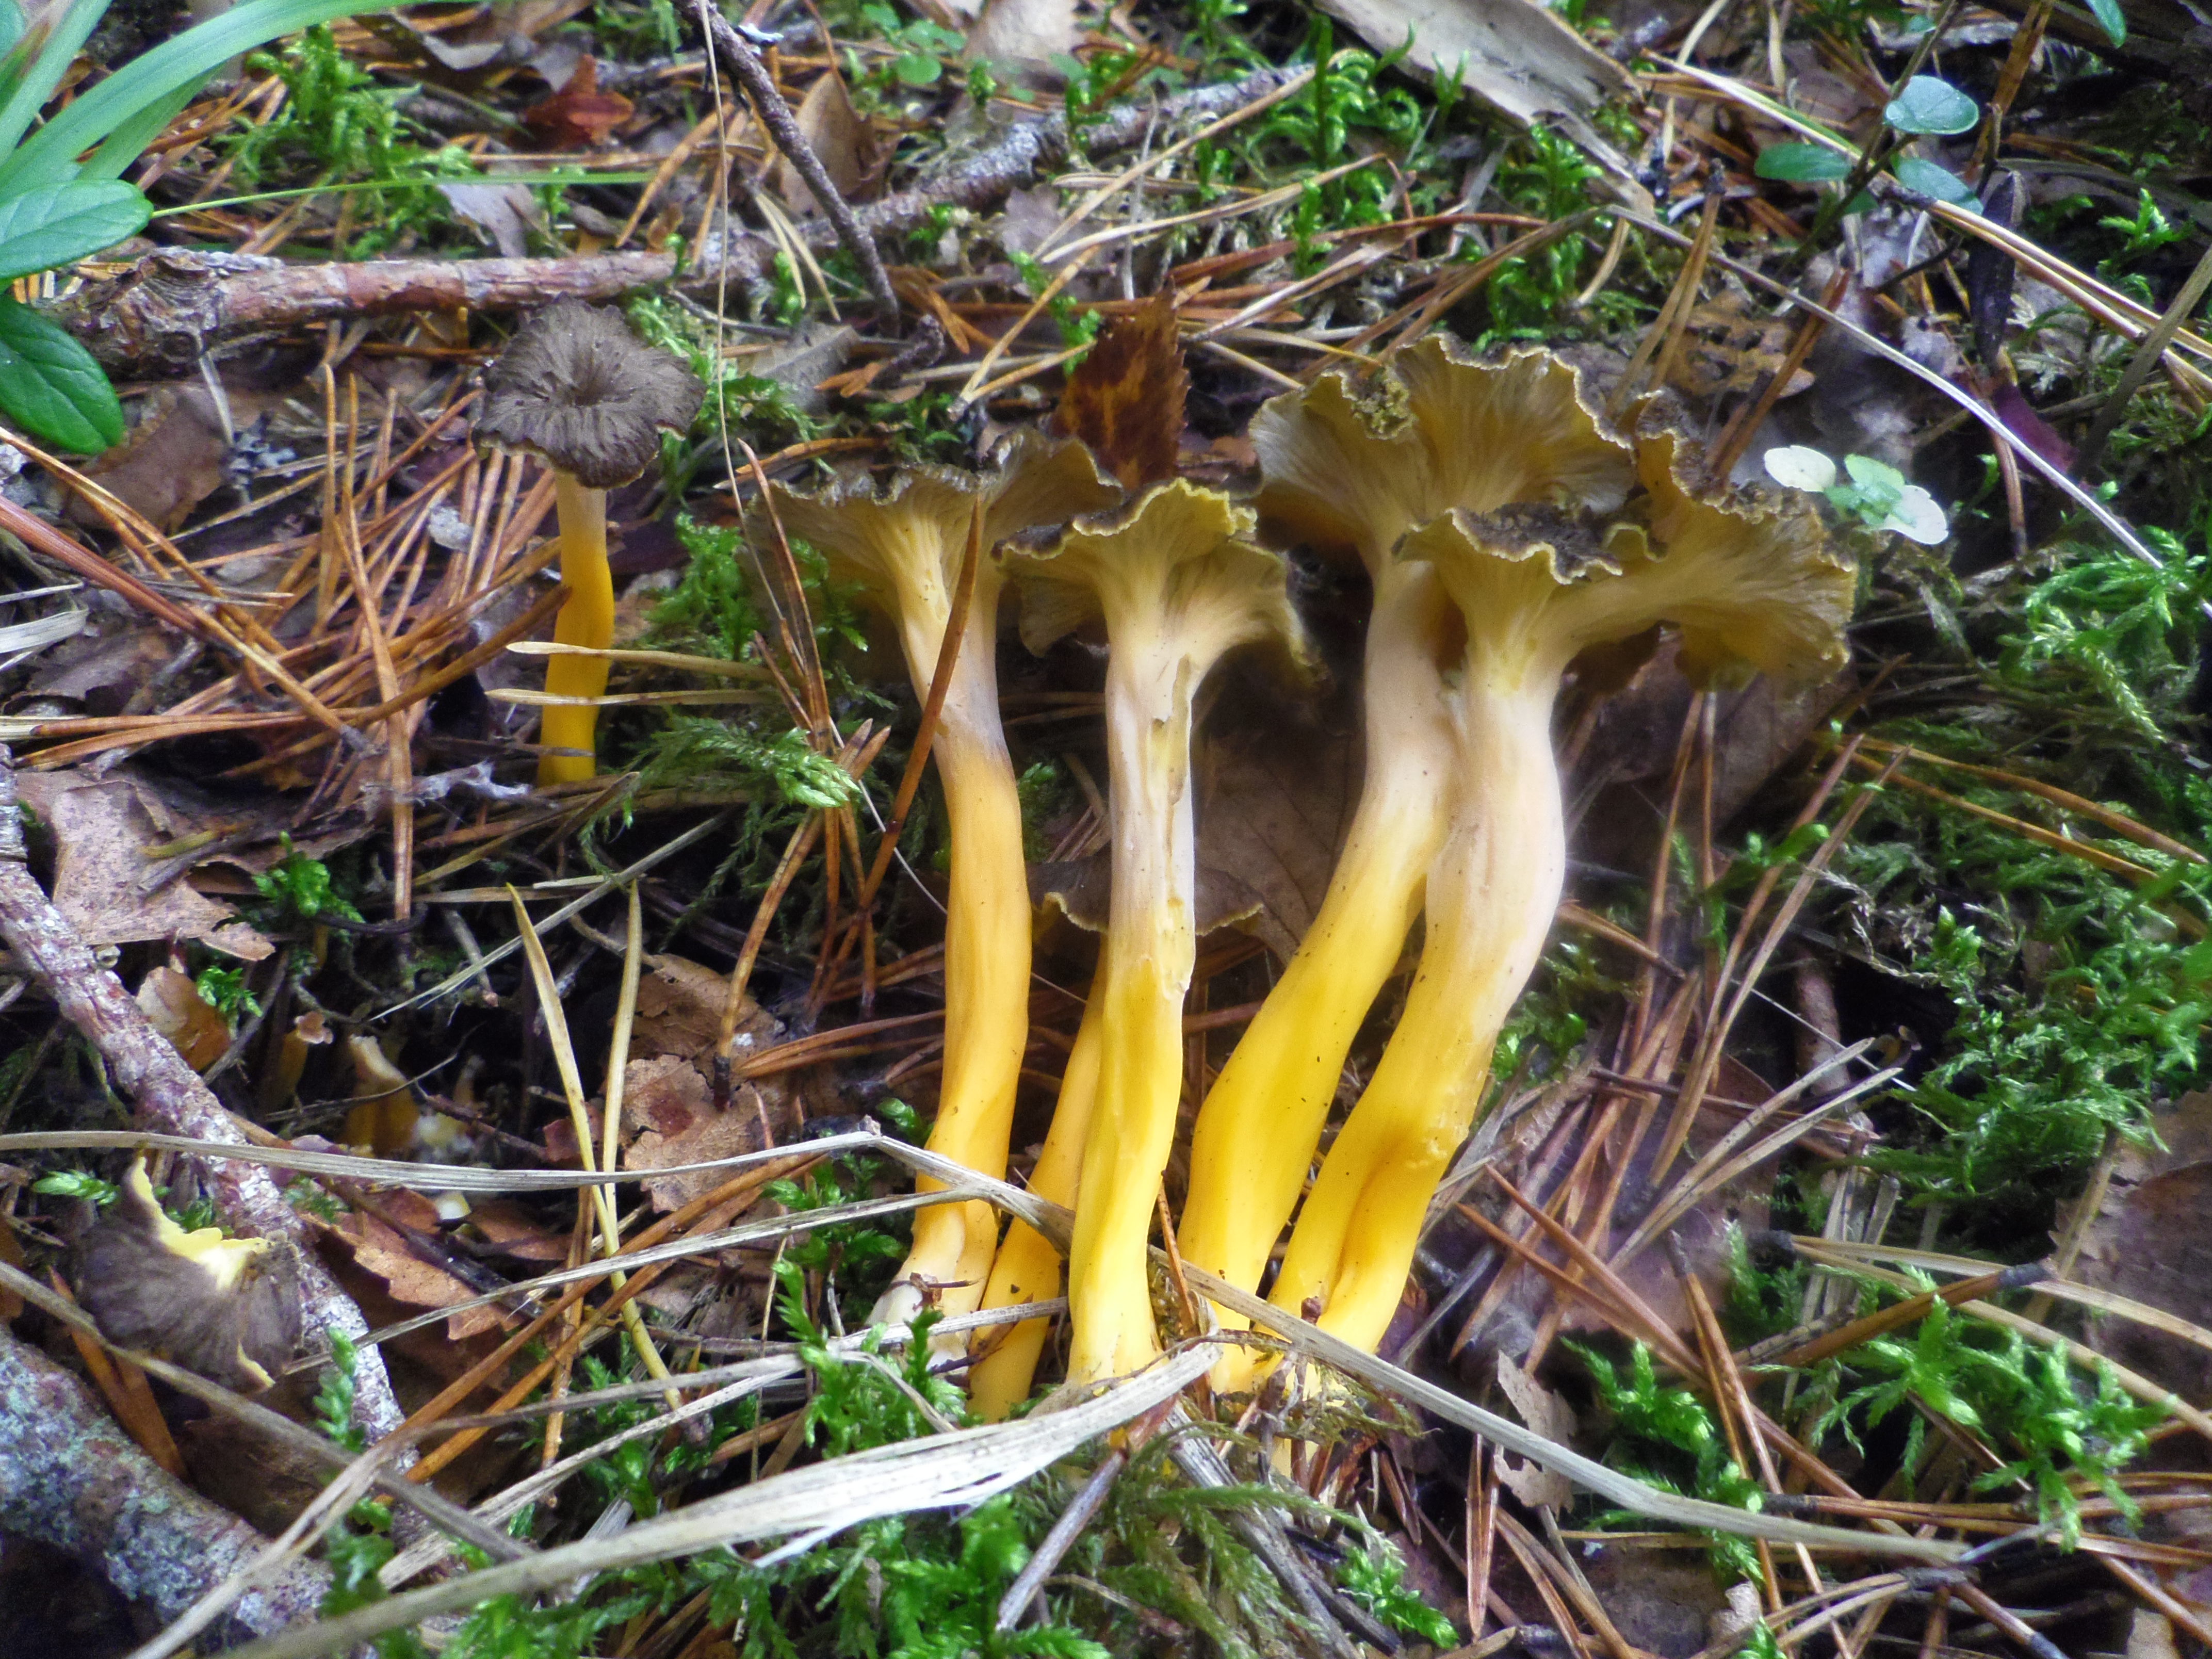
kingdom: Fungi
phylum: Basidiomycota
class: Agaricomycetes
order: Cantharellales
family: Hydnaceae
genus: Craterellus
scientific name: Craterellus lutescens
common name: Golden chanterelle
